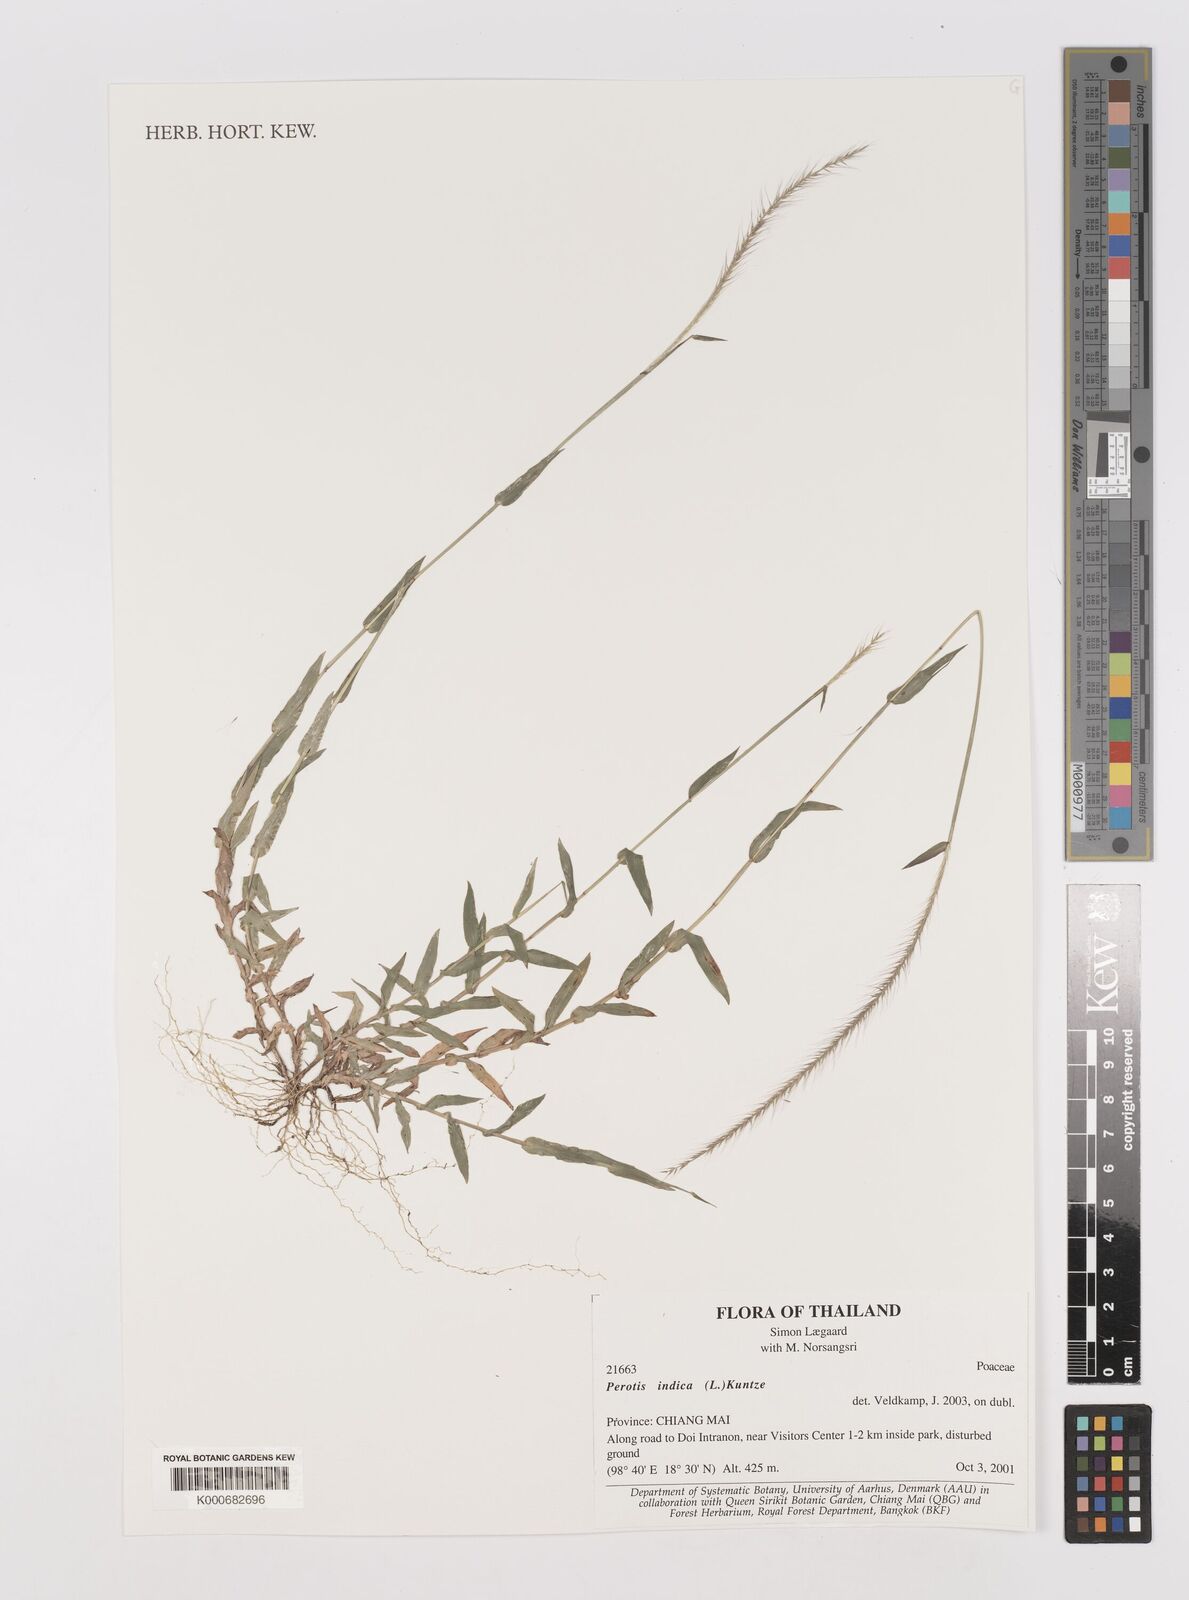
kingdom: Plantae
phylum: Tracheophyta
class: Liliopsida
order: Poales
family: Poaceae
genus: Perotis
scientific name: Perotis indica
